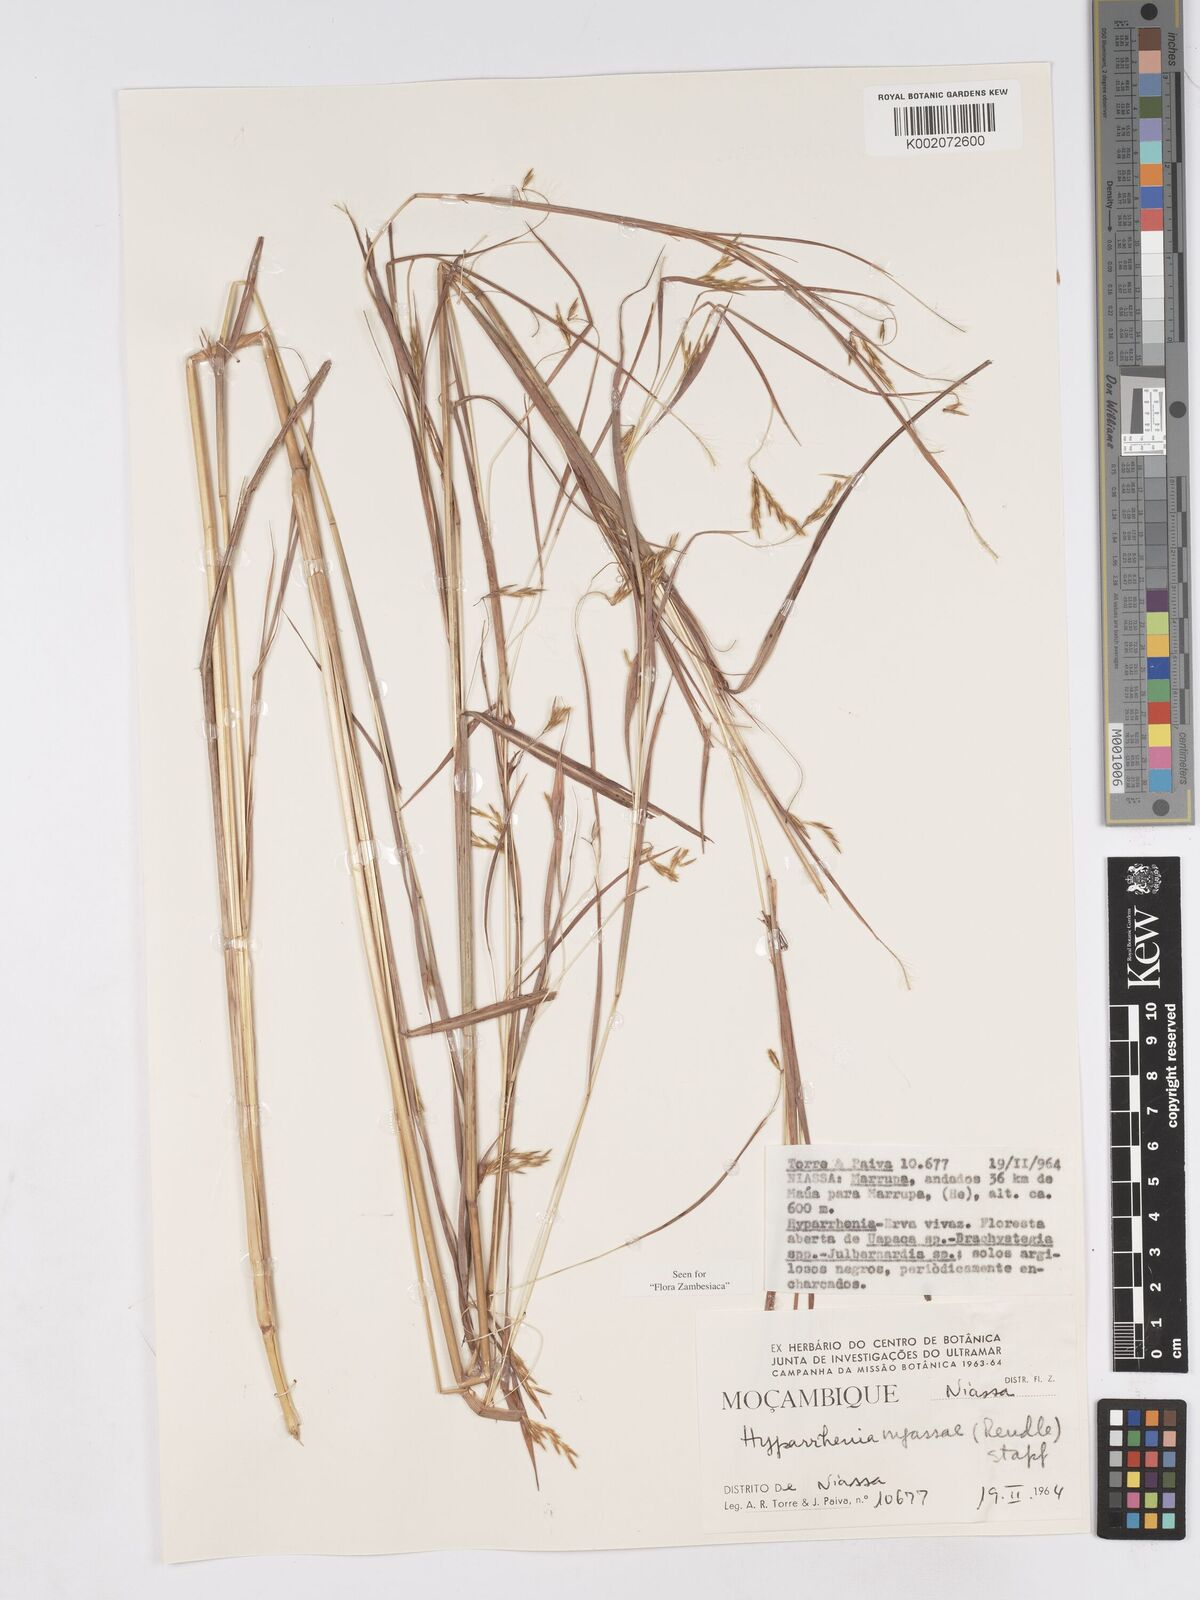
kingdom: Plantae
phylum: Tracheophyta
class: Liliopsida
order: Poales
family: Poaceae
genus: Hyparrhenia
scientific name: Hyparrhenia nyassae
